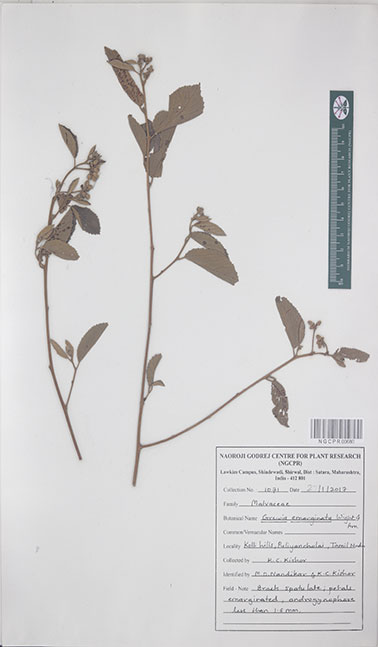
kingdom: Plantae
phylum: Tracheophyta
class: Magnoliopsida
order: Malvales
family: Malvaceae
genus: Grewia
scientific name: Grewia oppositifolia
